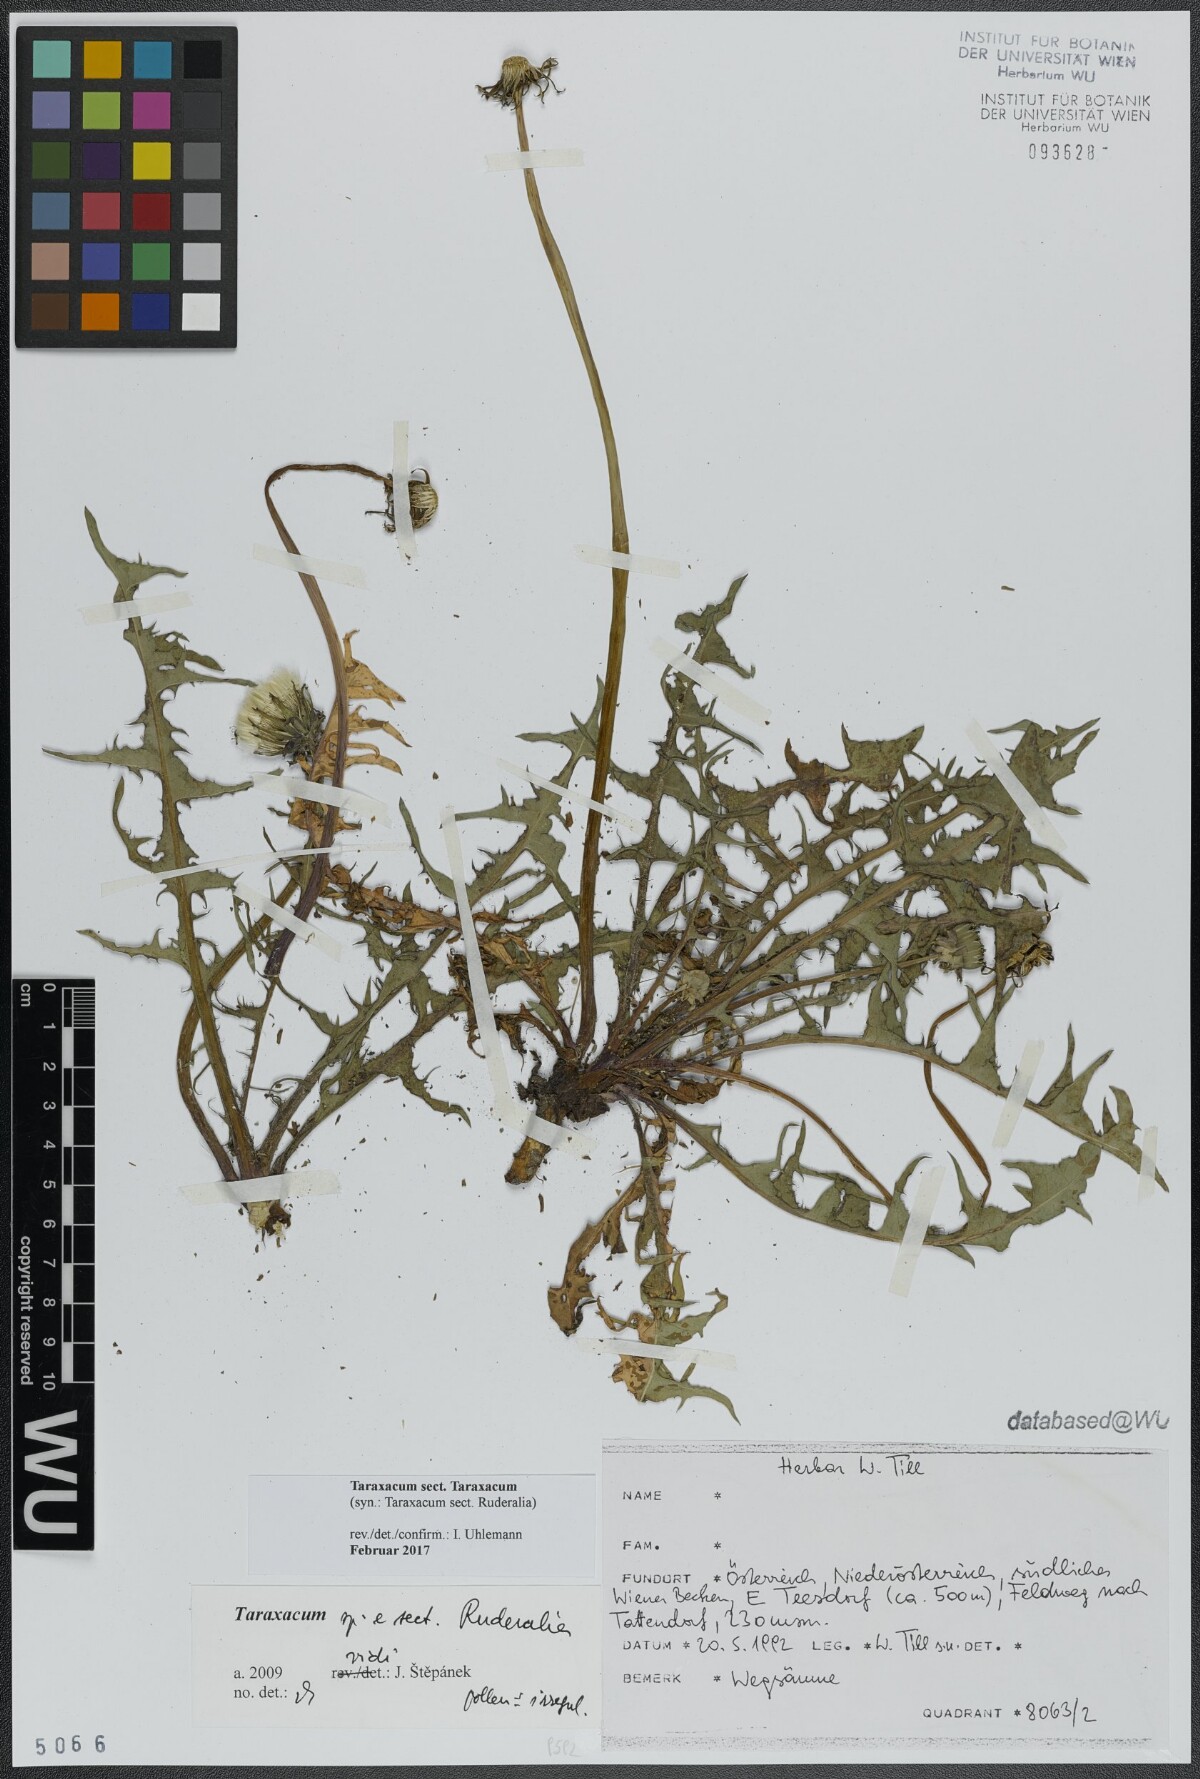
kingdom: Plantae
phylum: Tracheophyta
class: Magnoliopsida
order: Asterales
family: Asteraceae
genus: Taraxacum
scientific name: Taraxacum
